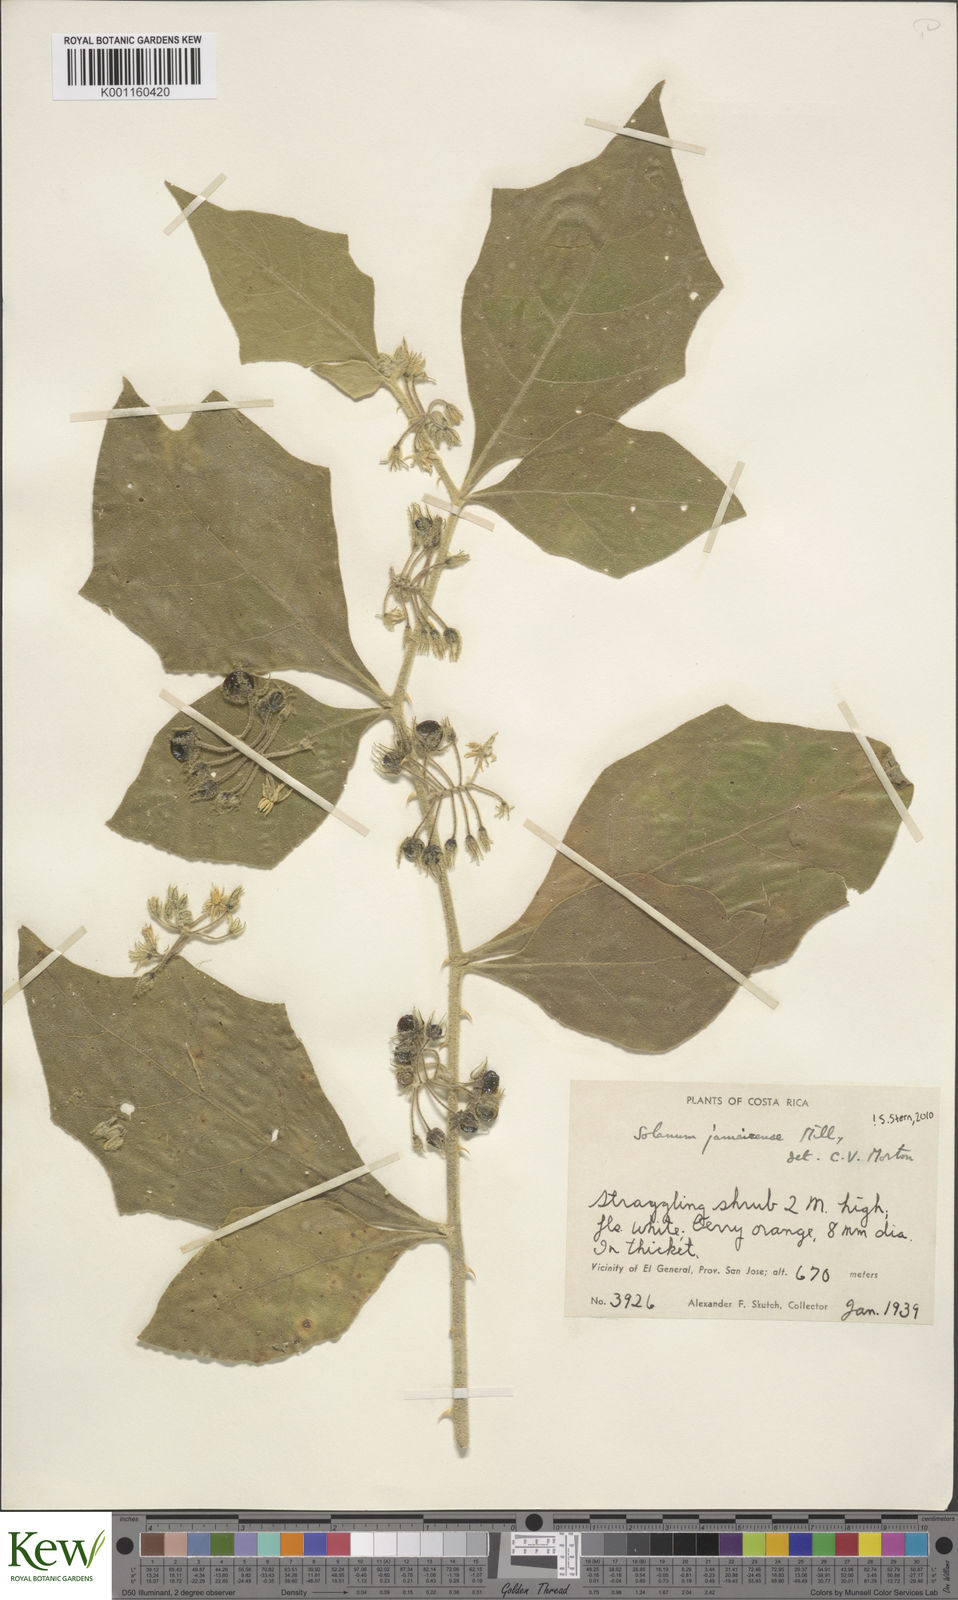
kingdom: Plantae
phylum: Tracheophyta
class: Magnoliopsida
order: Solanales
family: Solanaceae
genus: Solanum
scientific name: Solanum jamaicense
